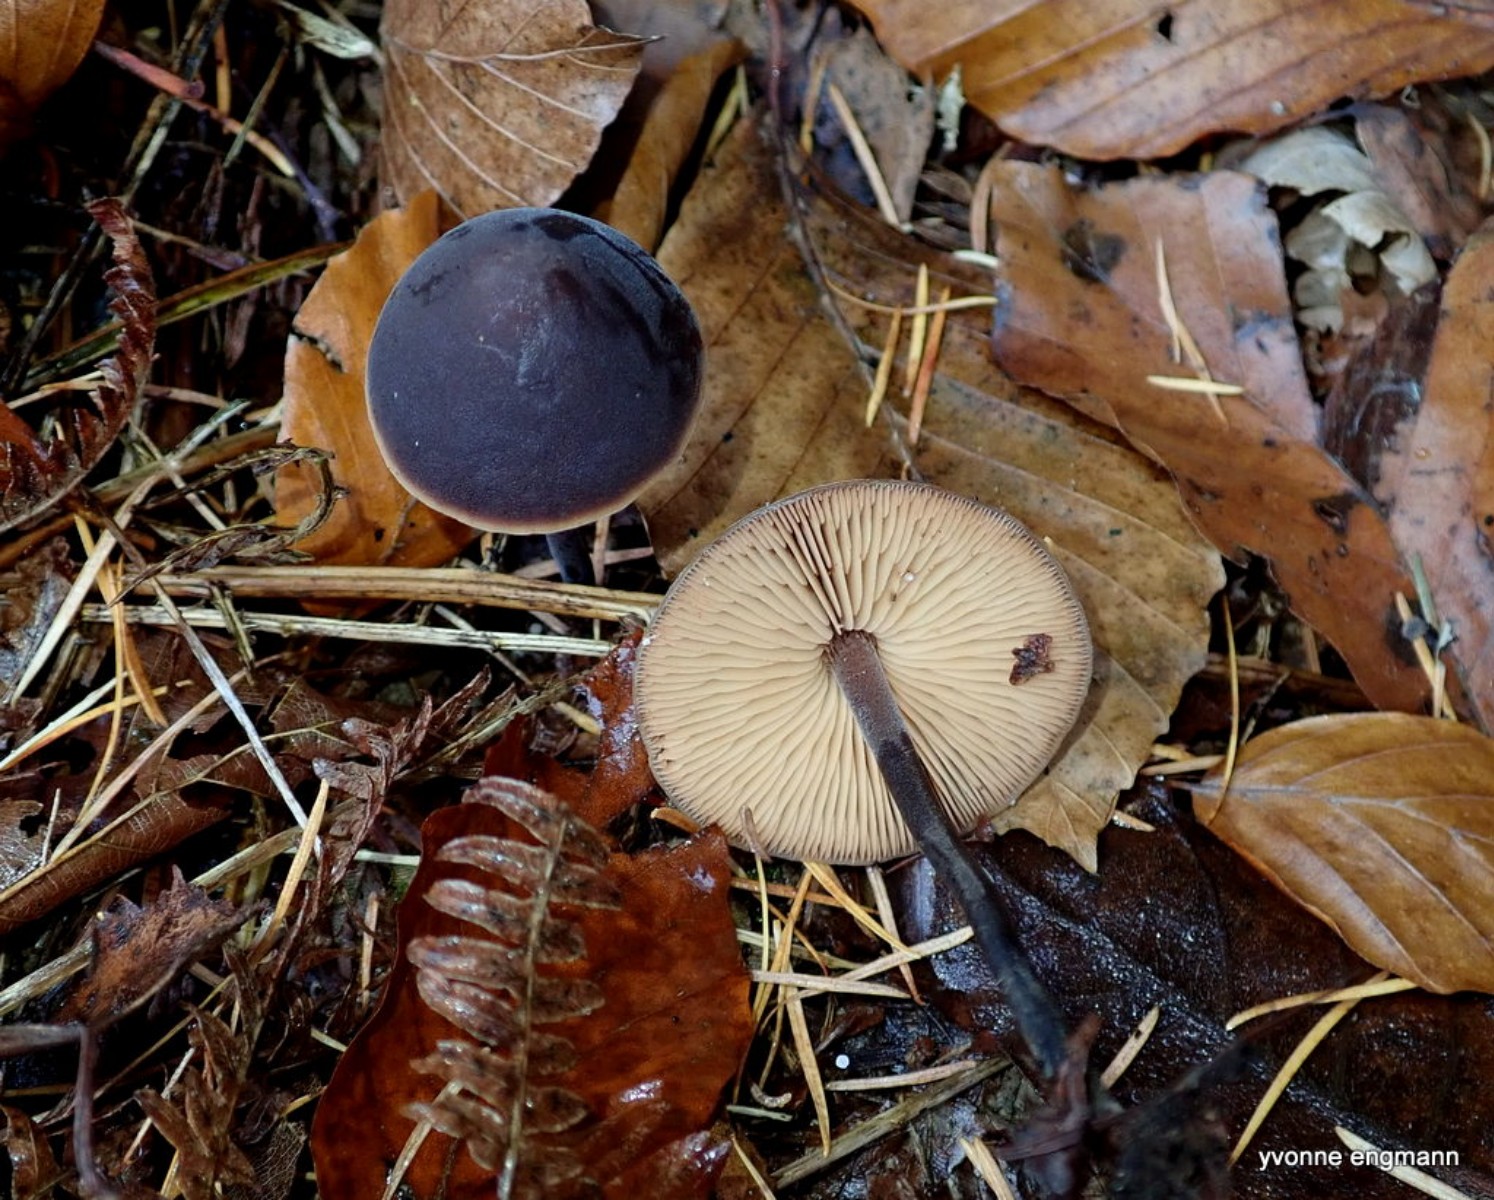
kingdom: Fungi
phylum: Basidiomycota
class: Agaricomycetes
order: Agaricales
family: Macrocystidiaceae
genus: Macrocystidia
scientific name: Macrocystidia cucumis
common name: agurkehat
